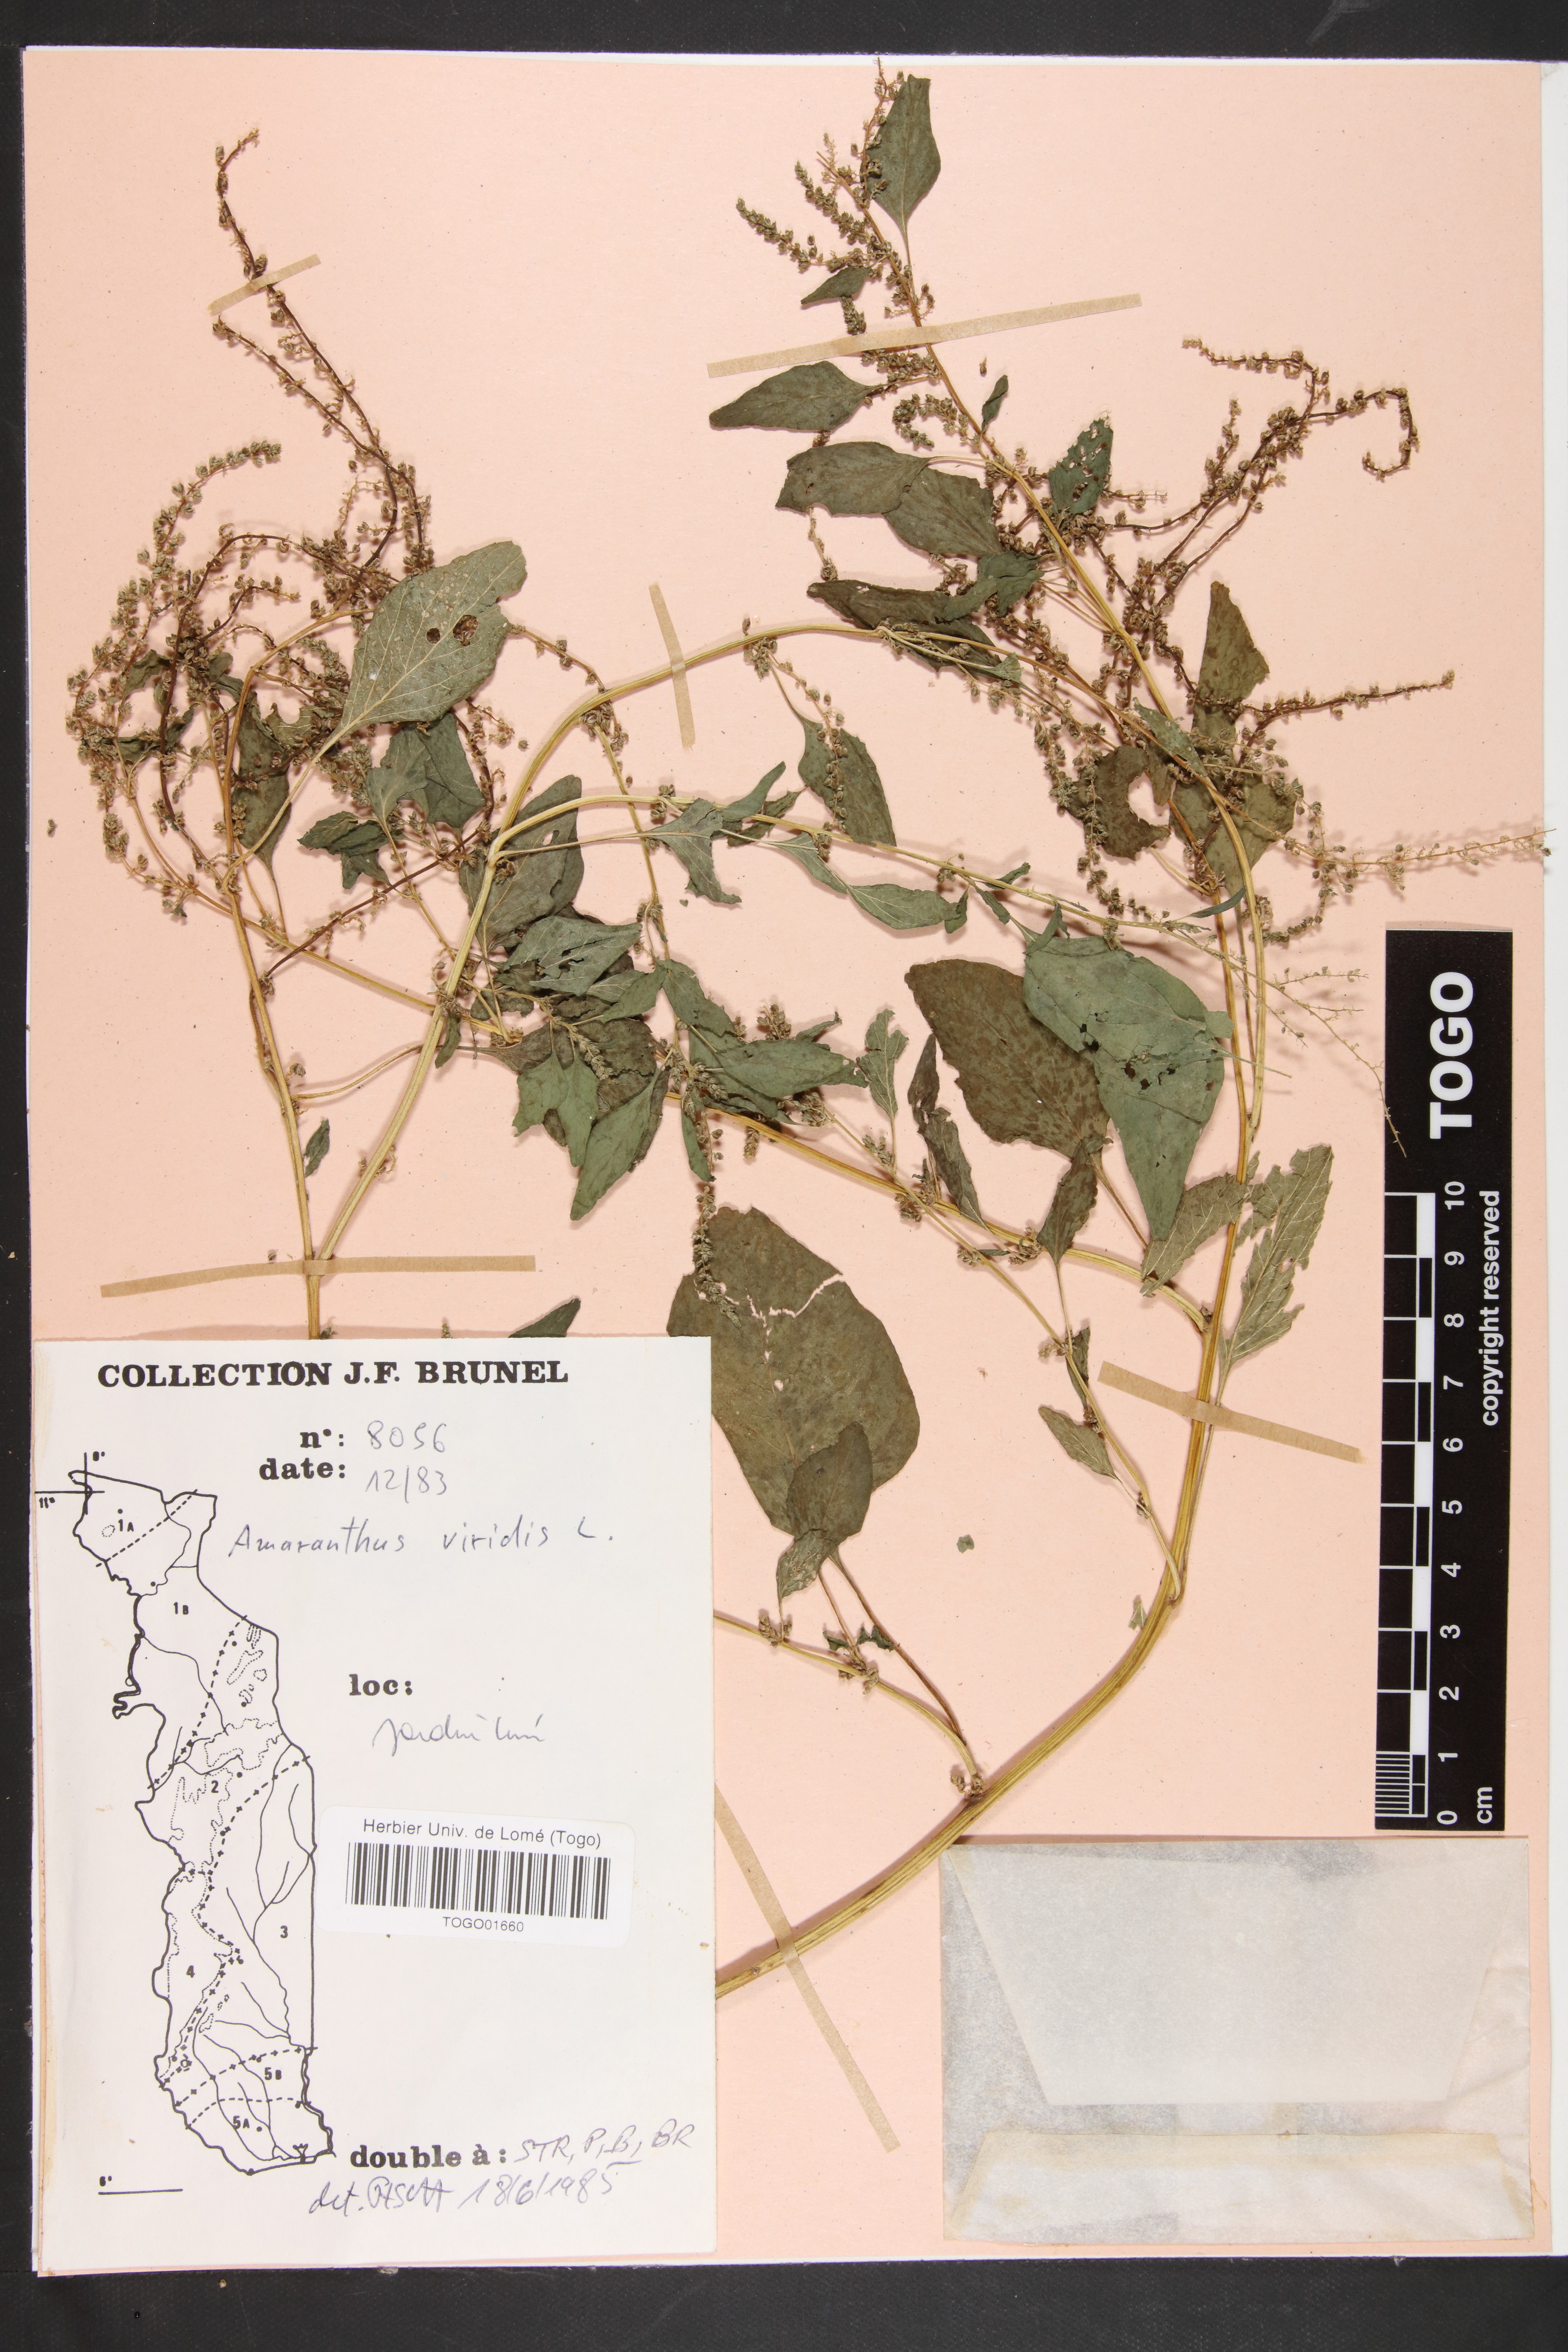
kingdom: Plantae
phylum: Tracheophyta
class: Magnoliopsida
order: Caryophyllales
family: Amaranthaceae
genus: Amaranthus
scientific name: Amaranthus viridis
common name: Slender amaranth
